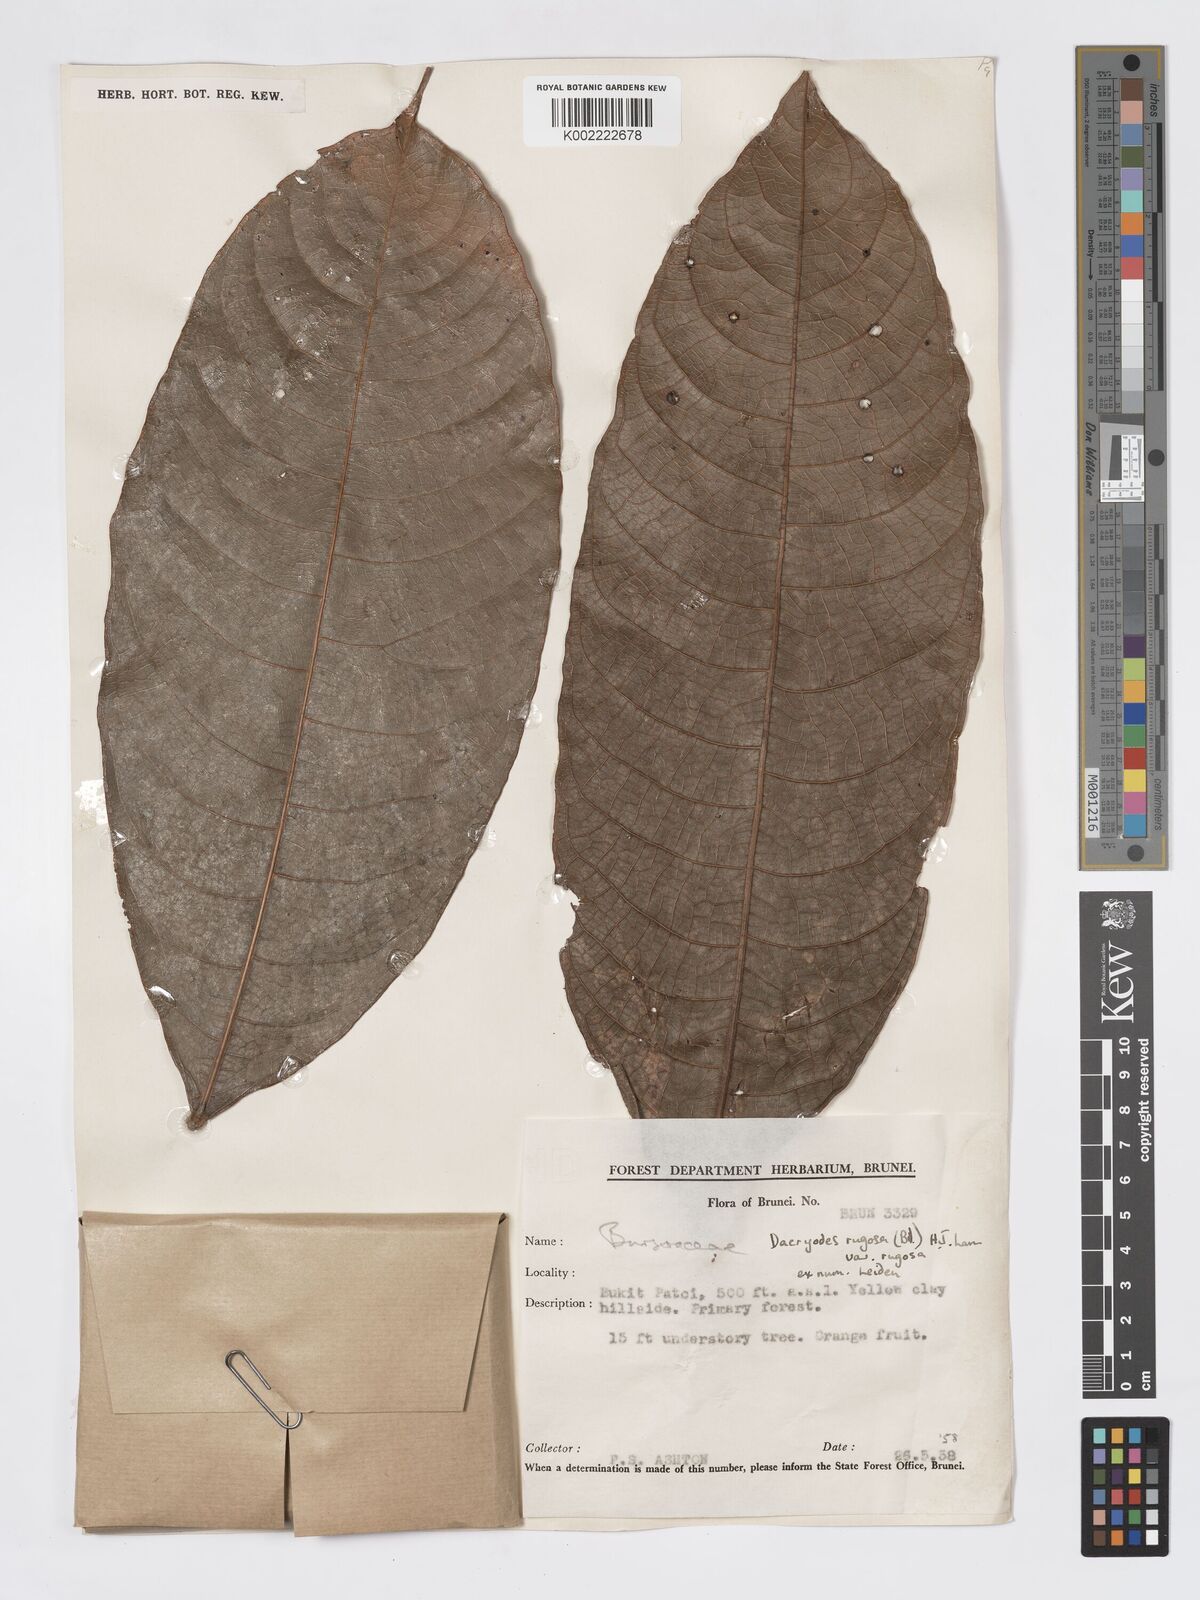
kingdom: Plantae
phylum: Tracheophyta
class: Magnoliopsida
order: Sapindales
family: Burseraceae
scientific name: Burseraceae
